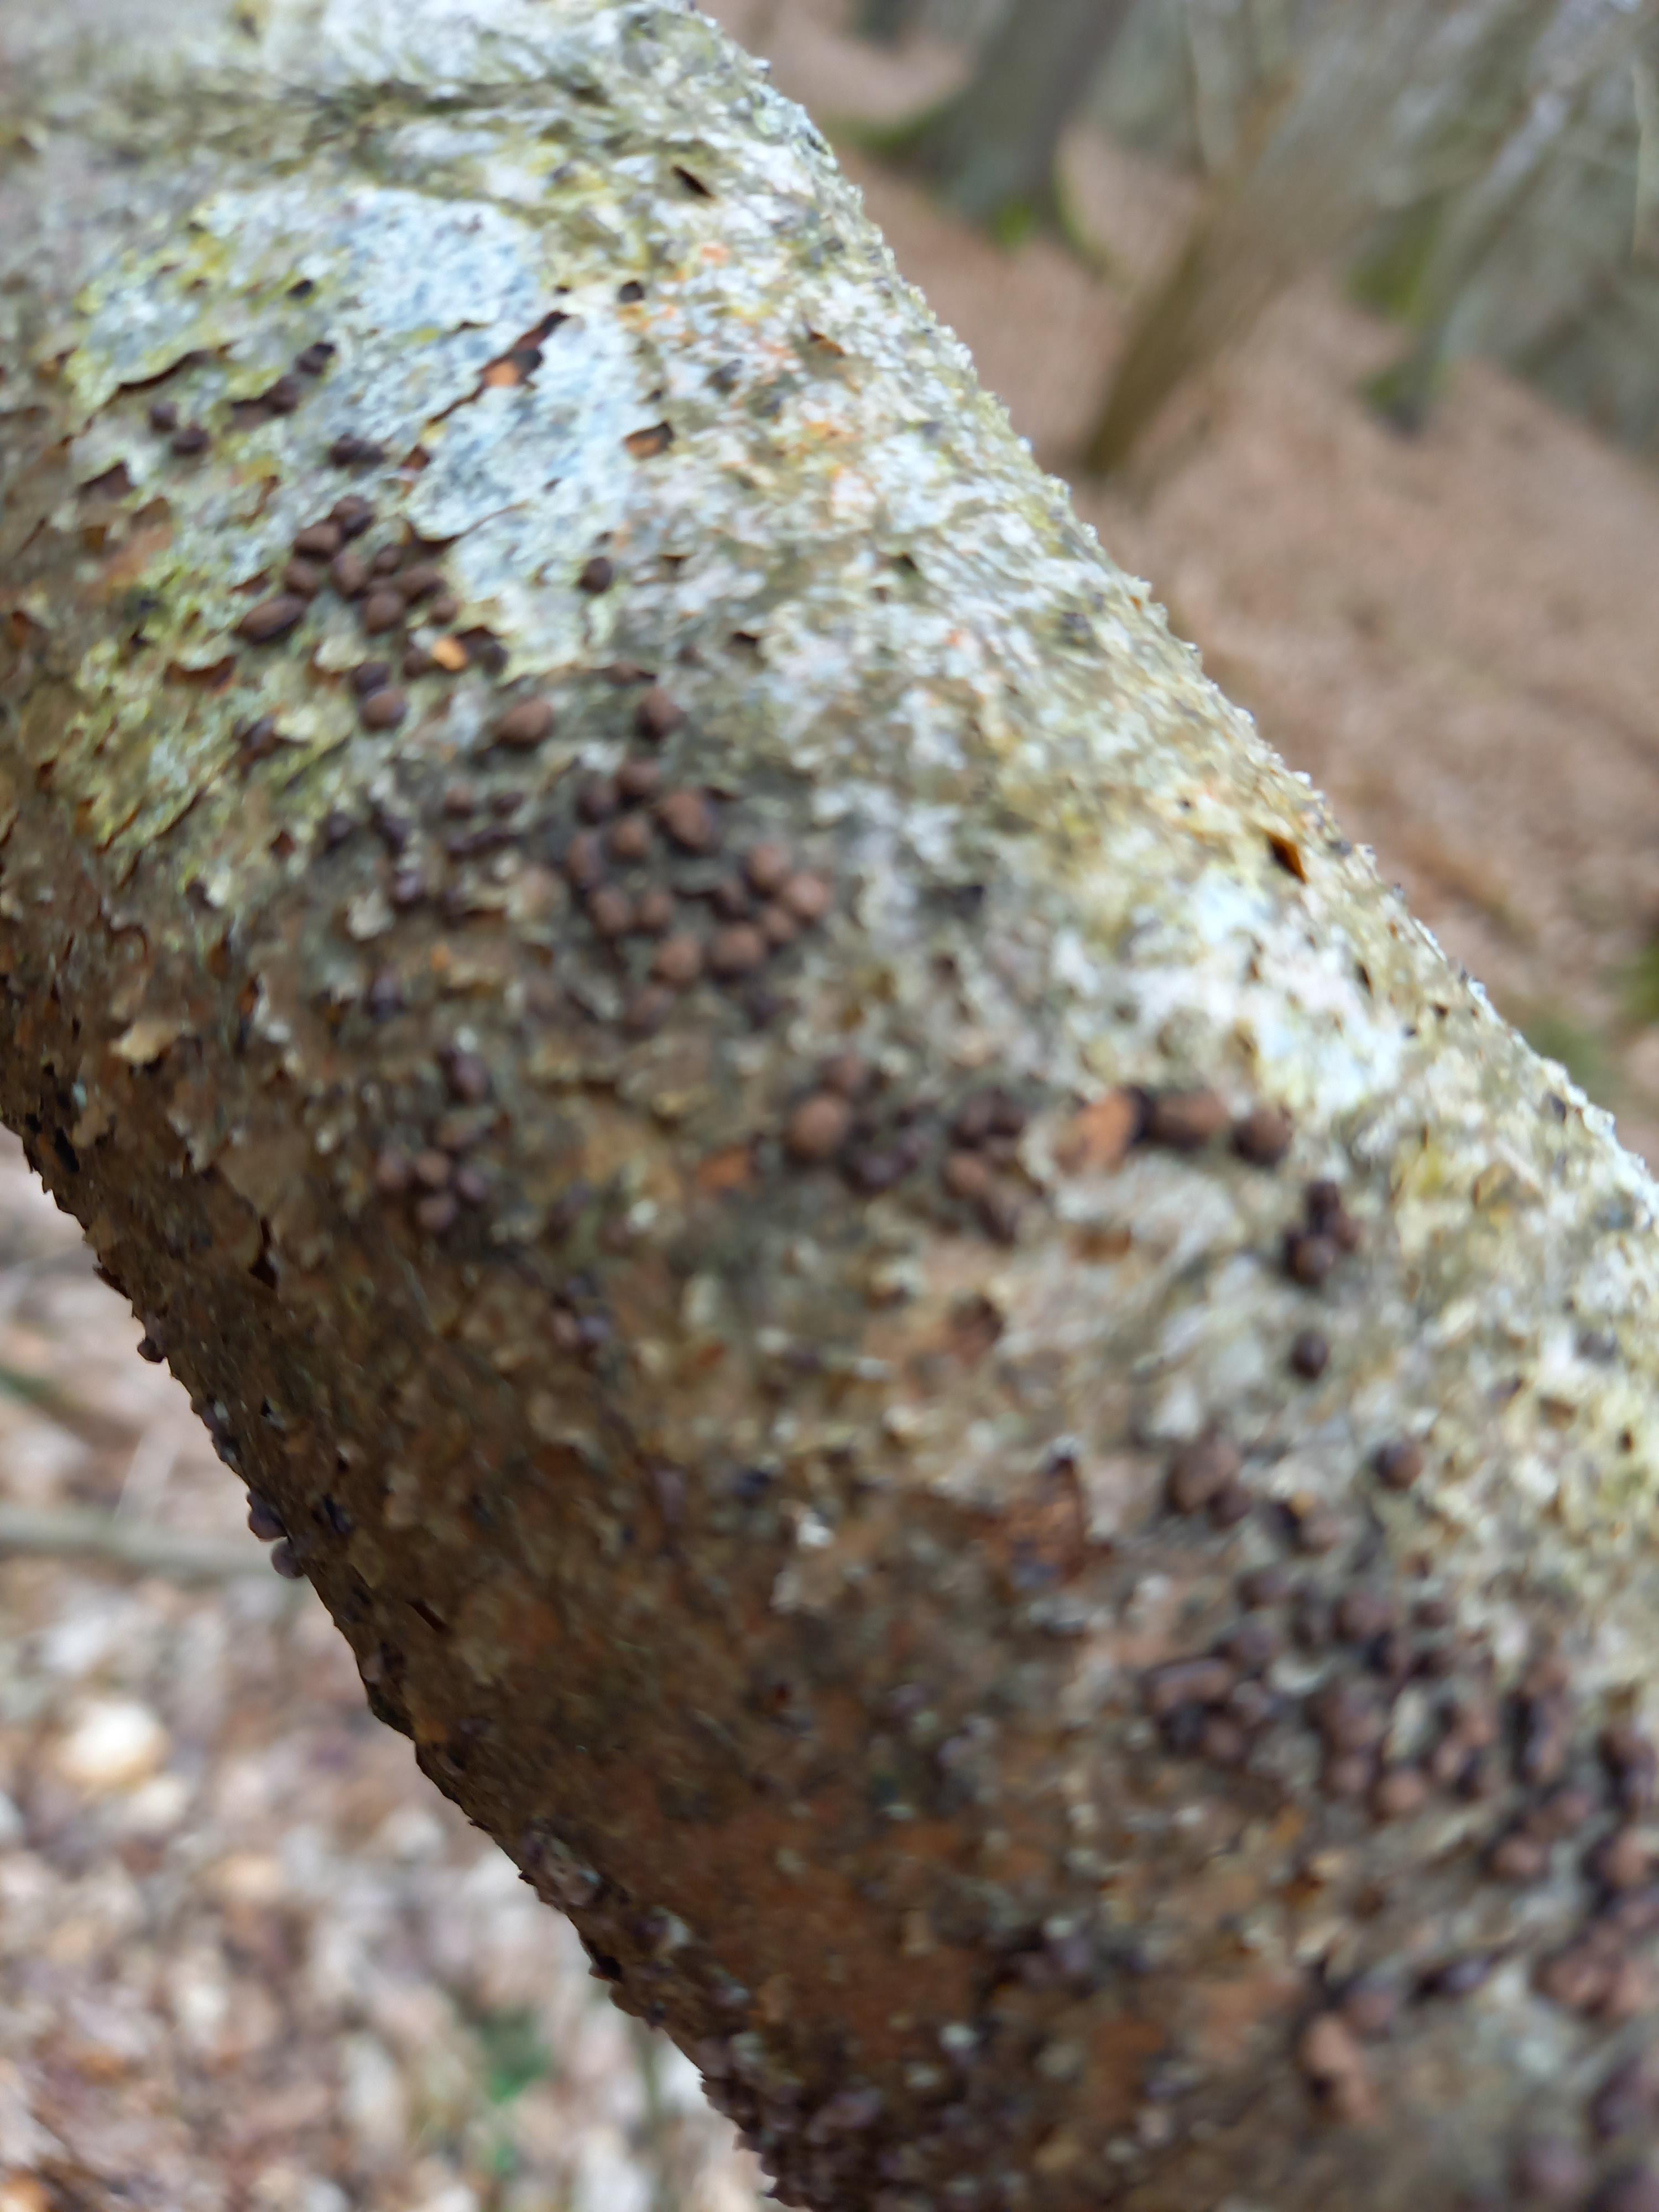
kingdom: Fungi
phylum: Ascomycota
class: Sordariomycetes
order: Xylariales
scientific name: Xylariales
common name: stødsvampordenen
